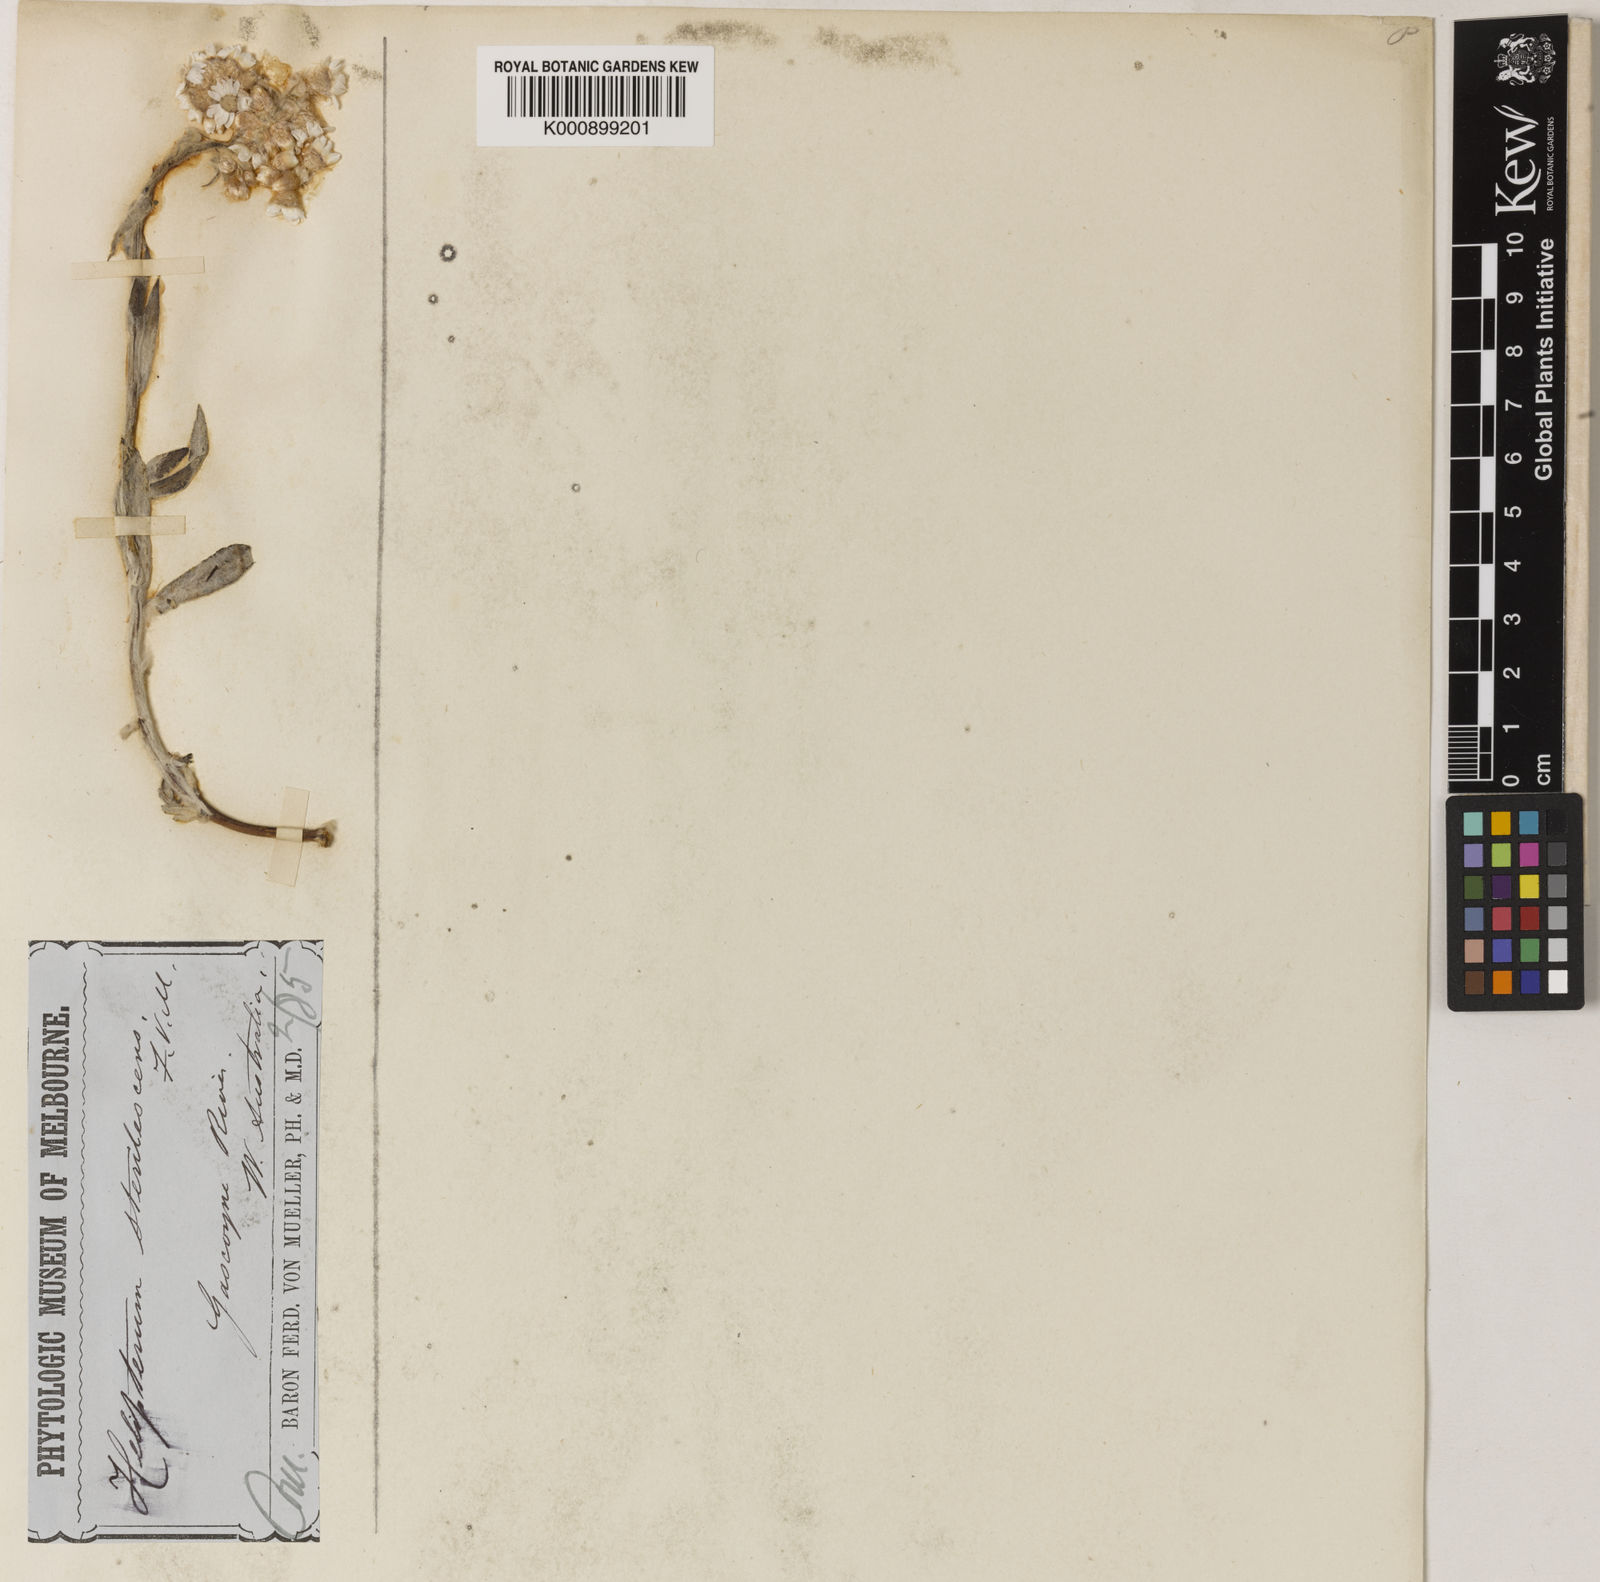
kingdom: Plantae
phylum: Tracheophyta
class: Magnoliopsida
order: Asterales
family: Asteraceae
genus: Rhodanthe
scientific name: Rhodanthe sterilescens
